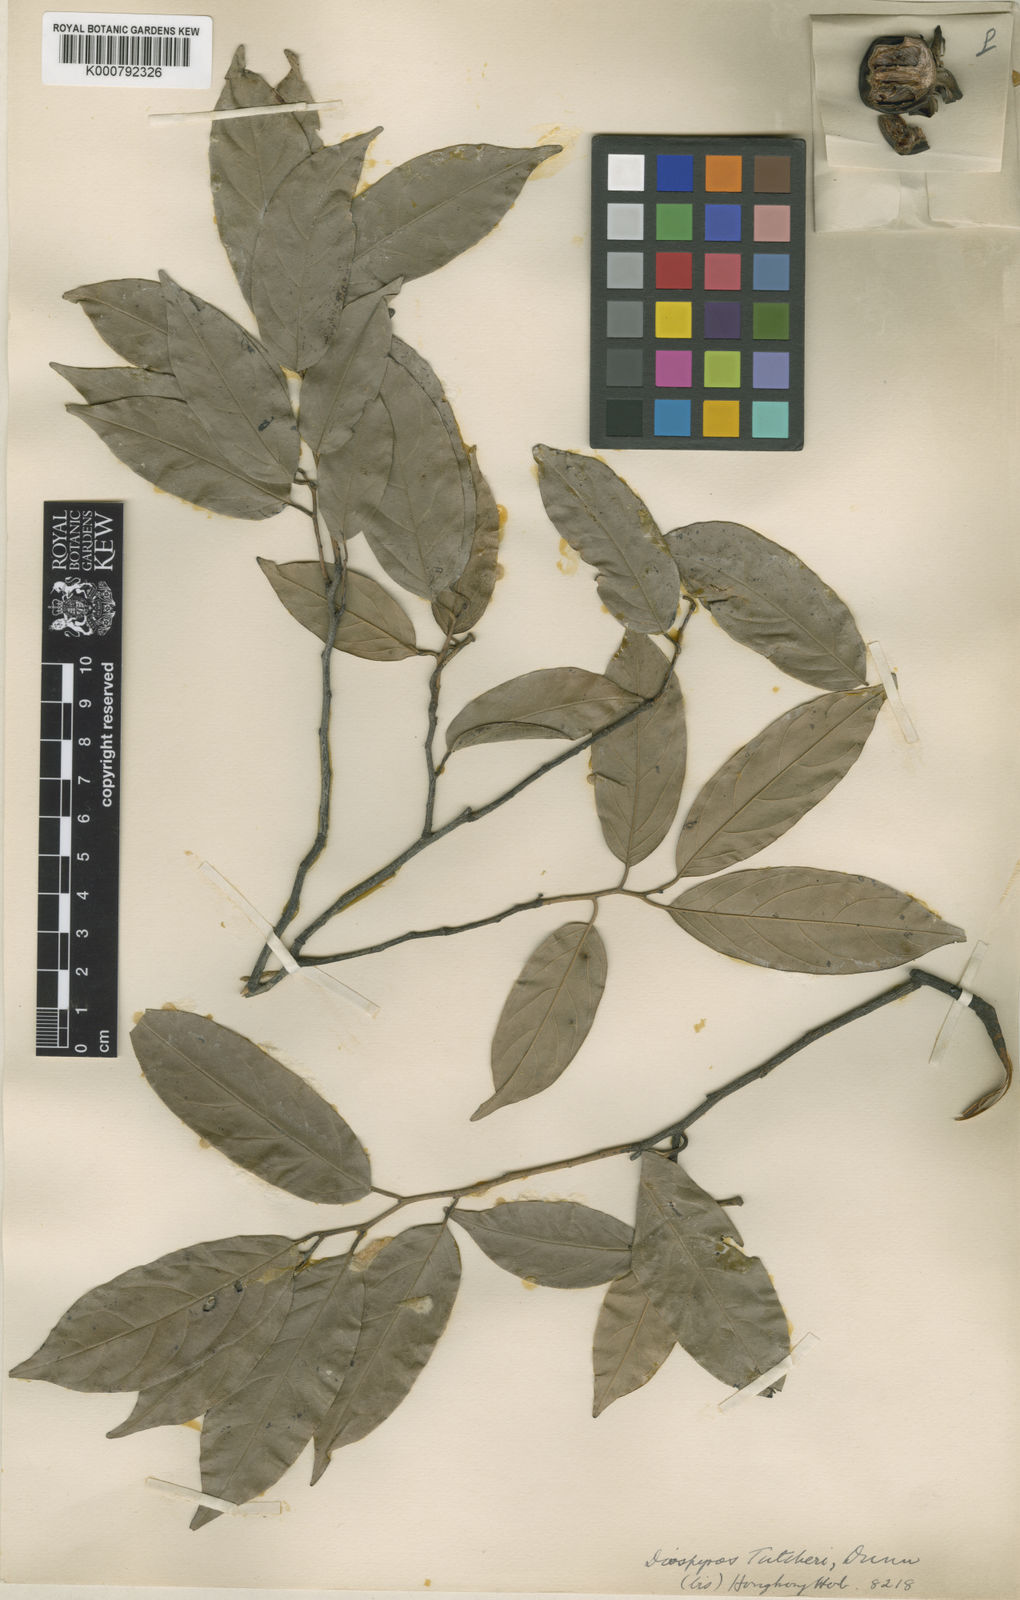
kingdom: Plantae
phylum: Tracheophyta
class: Magnoliopsida
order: Ericales
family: Ebenaceae
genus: Diospyros
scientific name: Diospyros tutcheri
